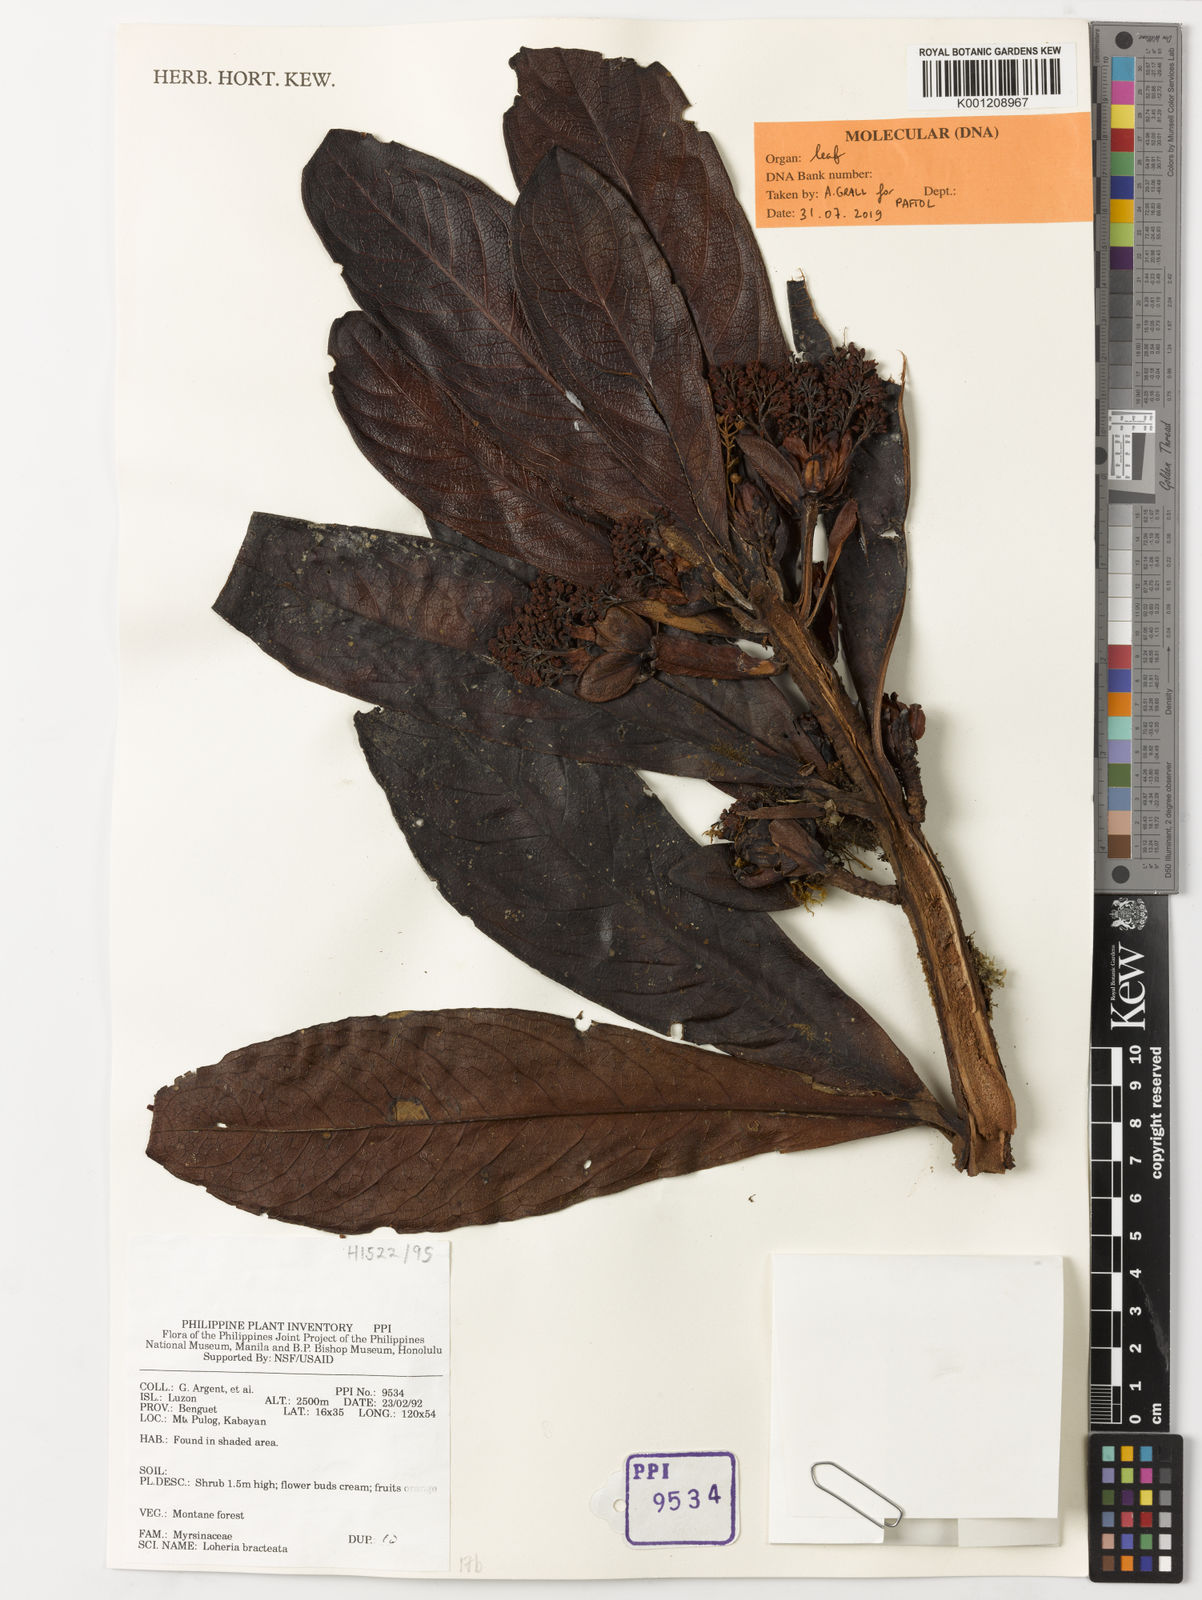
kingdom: Plantae
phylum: Tracheophyta
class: Magnoliopsida
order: Ericales
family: Primulaceae
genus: Loheria
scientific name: Loheria bracteata
